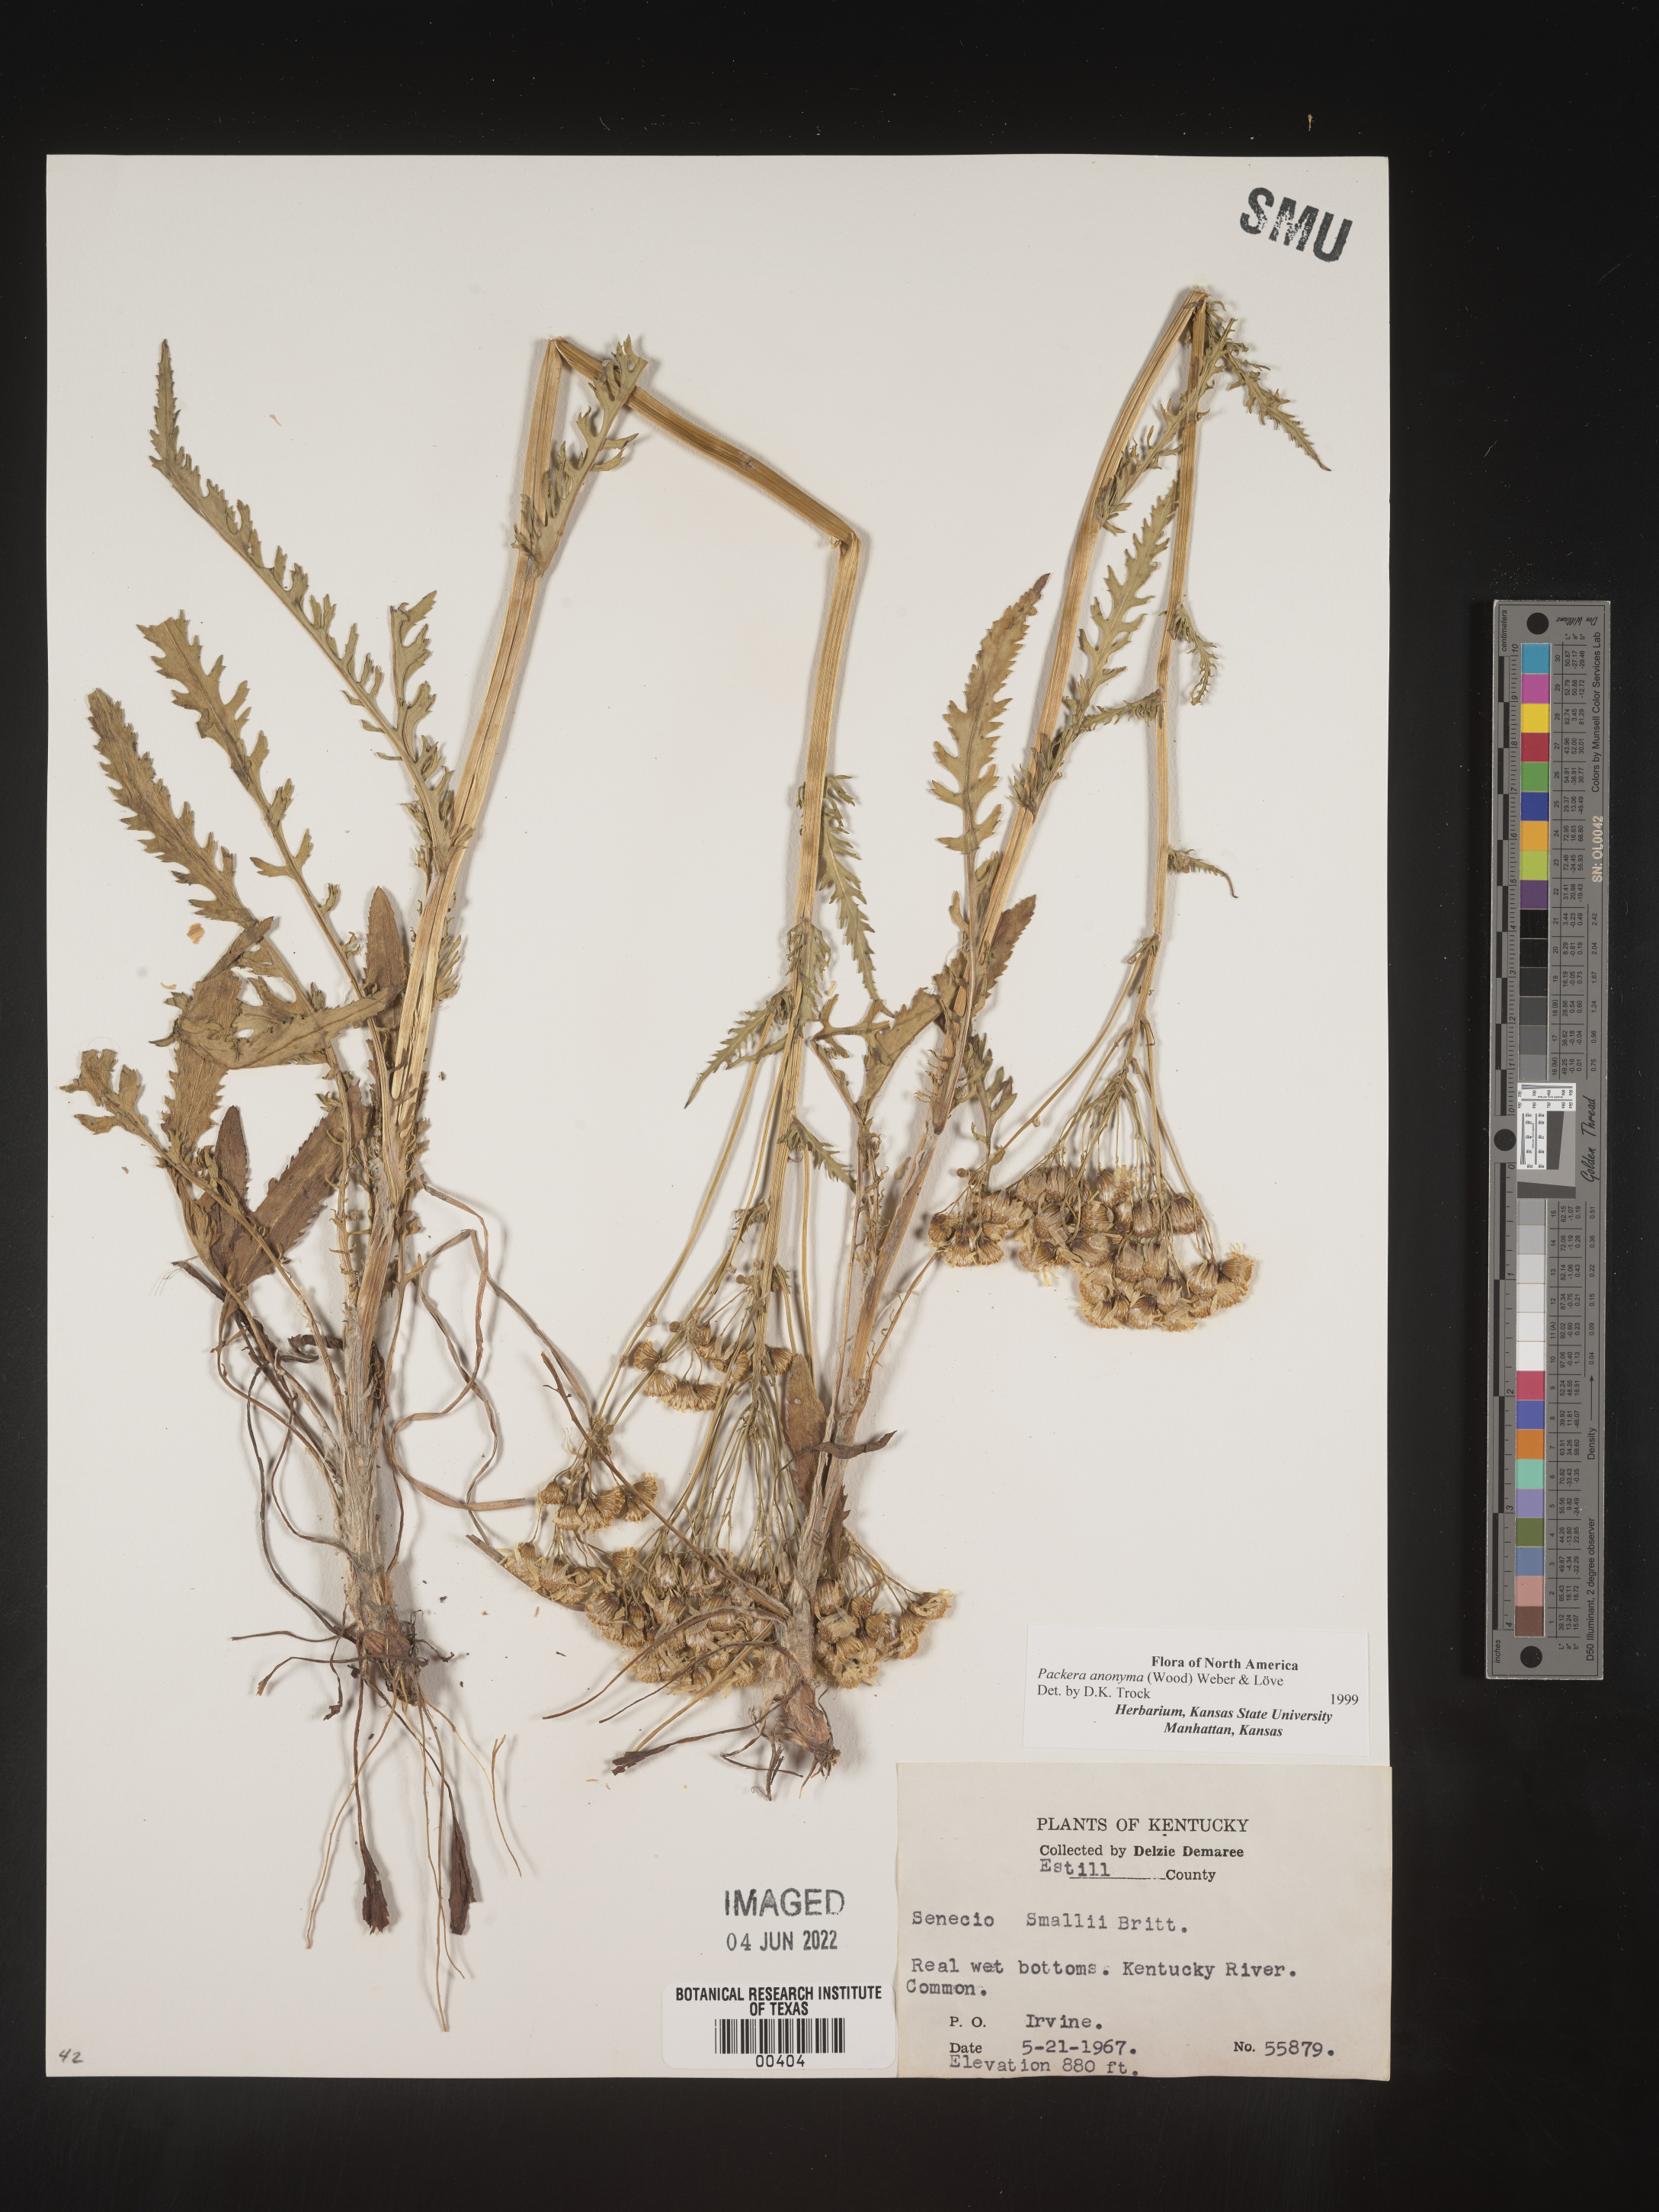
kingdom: Plantae
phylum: Tracheophyta
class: Magnoliopsida
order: Asterales
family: Asteraceae
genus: Packera
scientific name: Packera anonyma
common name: Small ragwort
